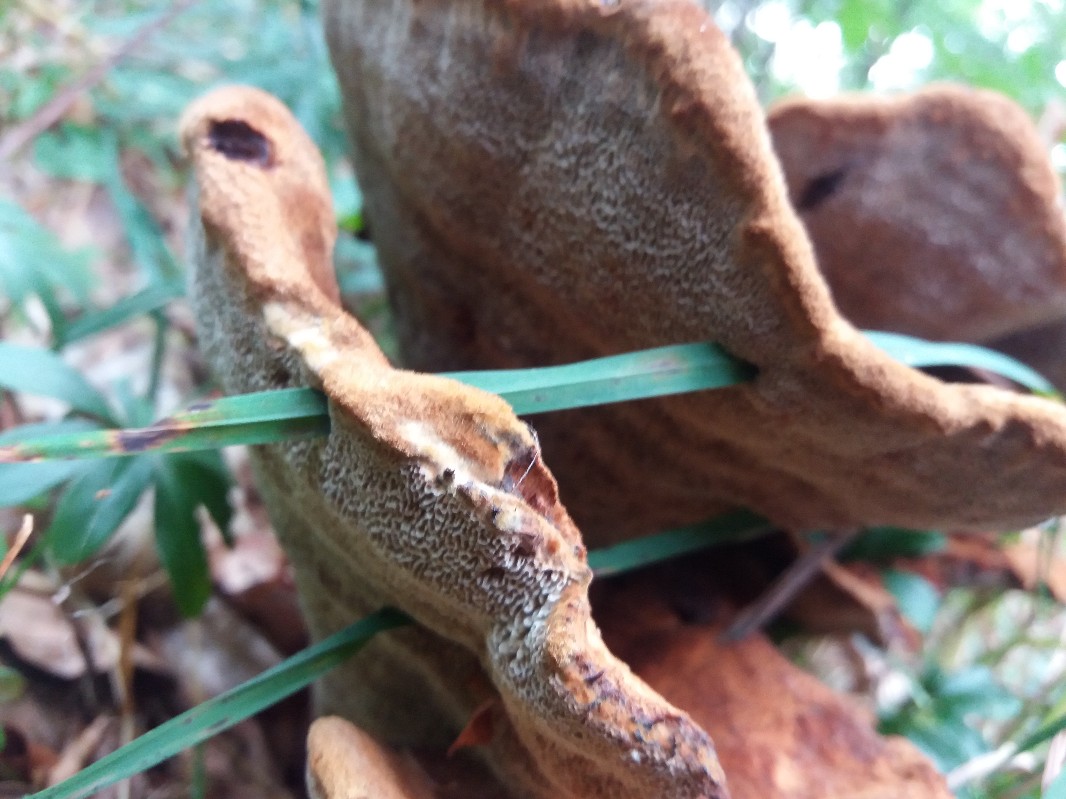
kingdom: Fungi
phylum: Basidiomycota
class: Agaricomycetes
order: Polyporales
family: Laetiporaceae
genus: Phaeolus
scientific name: Phaeolus schweinitzii
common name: brunporesvamp
